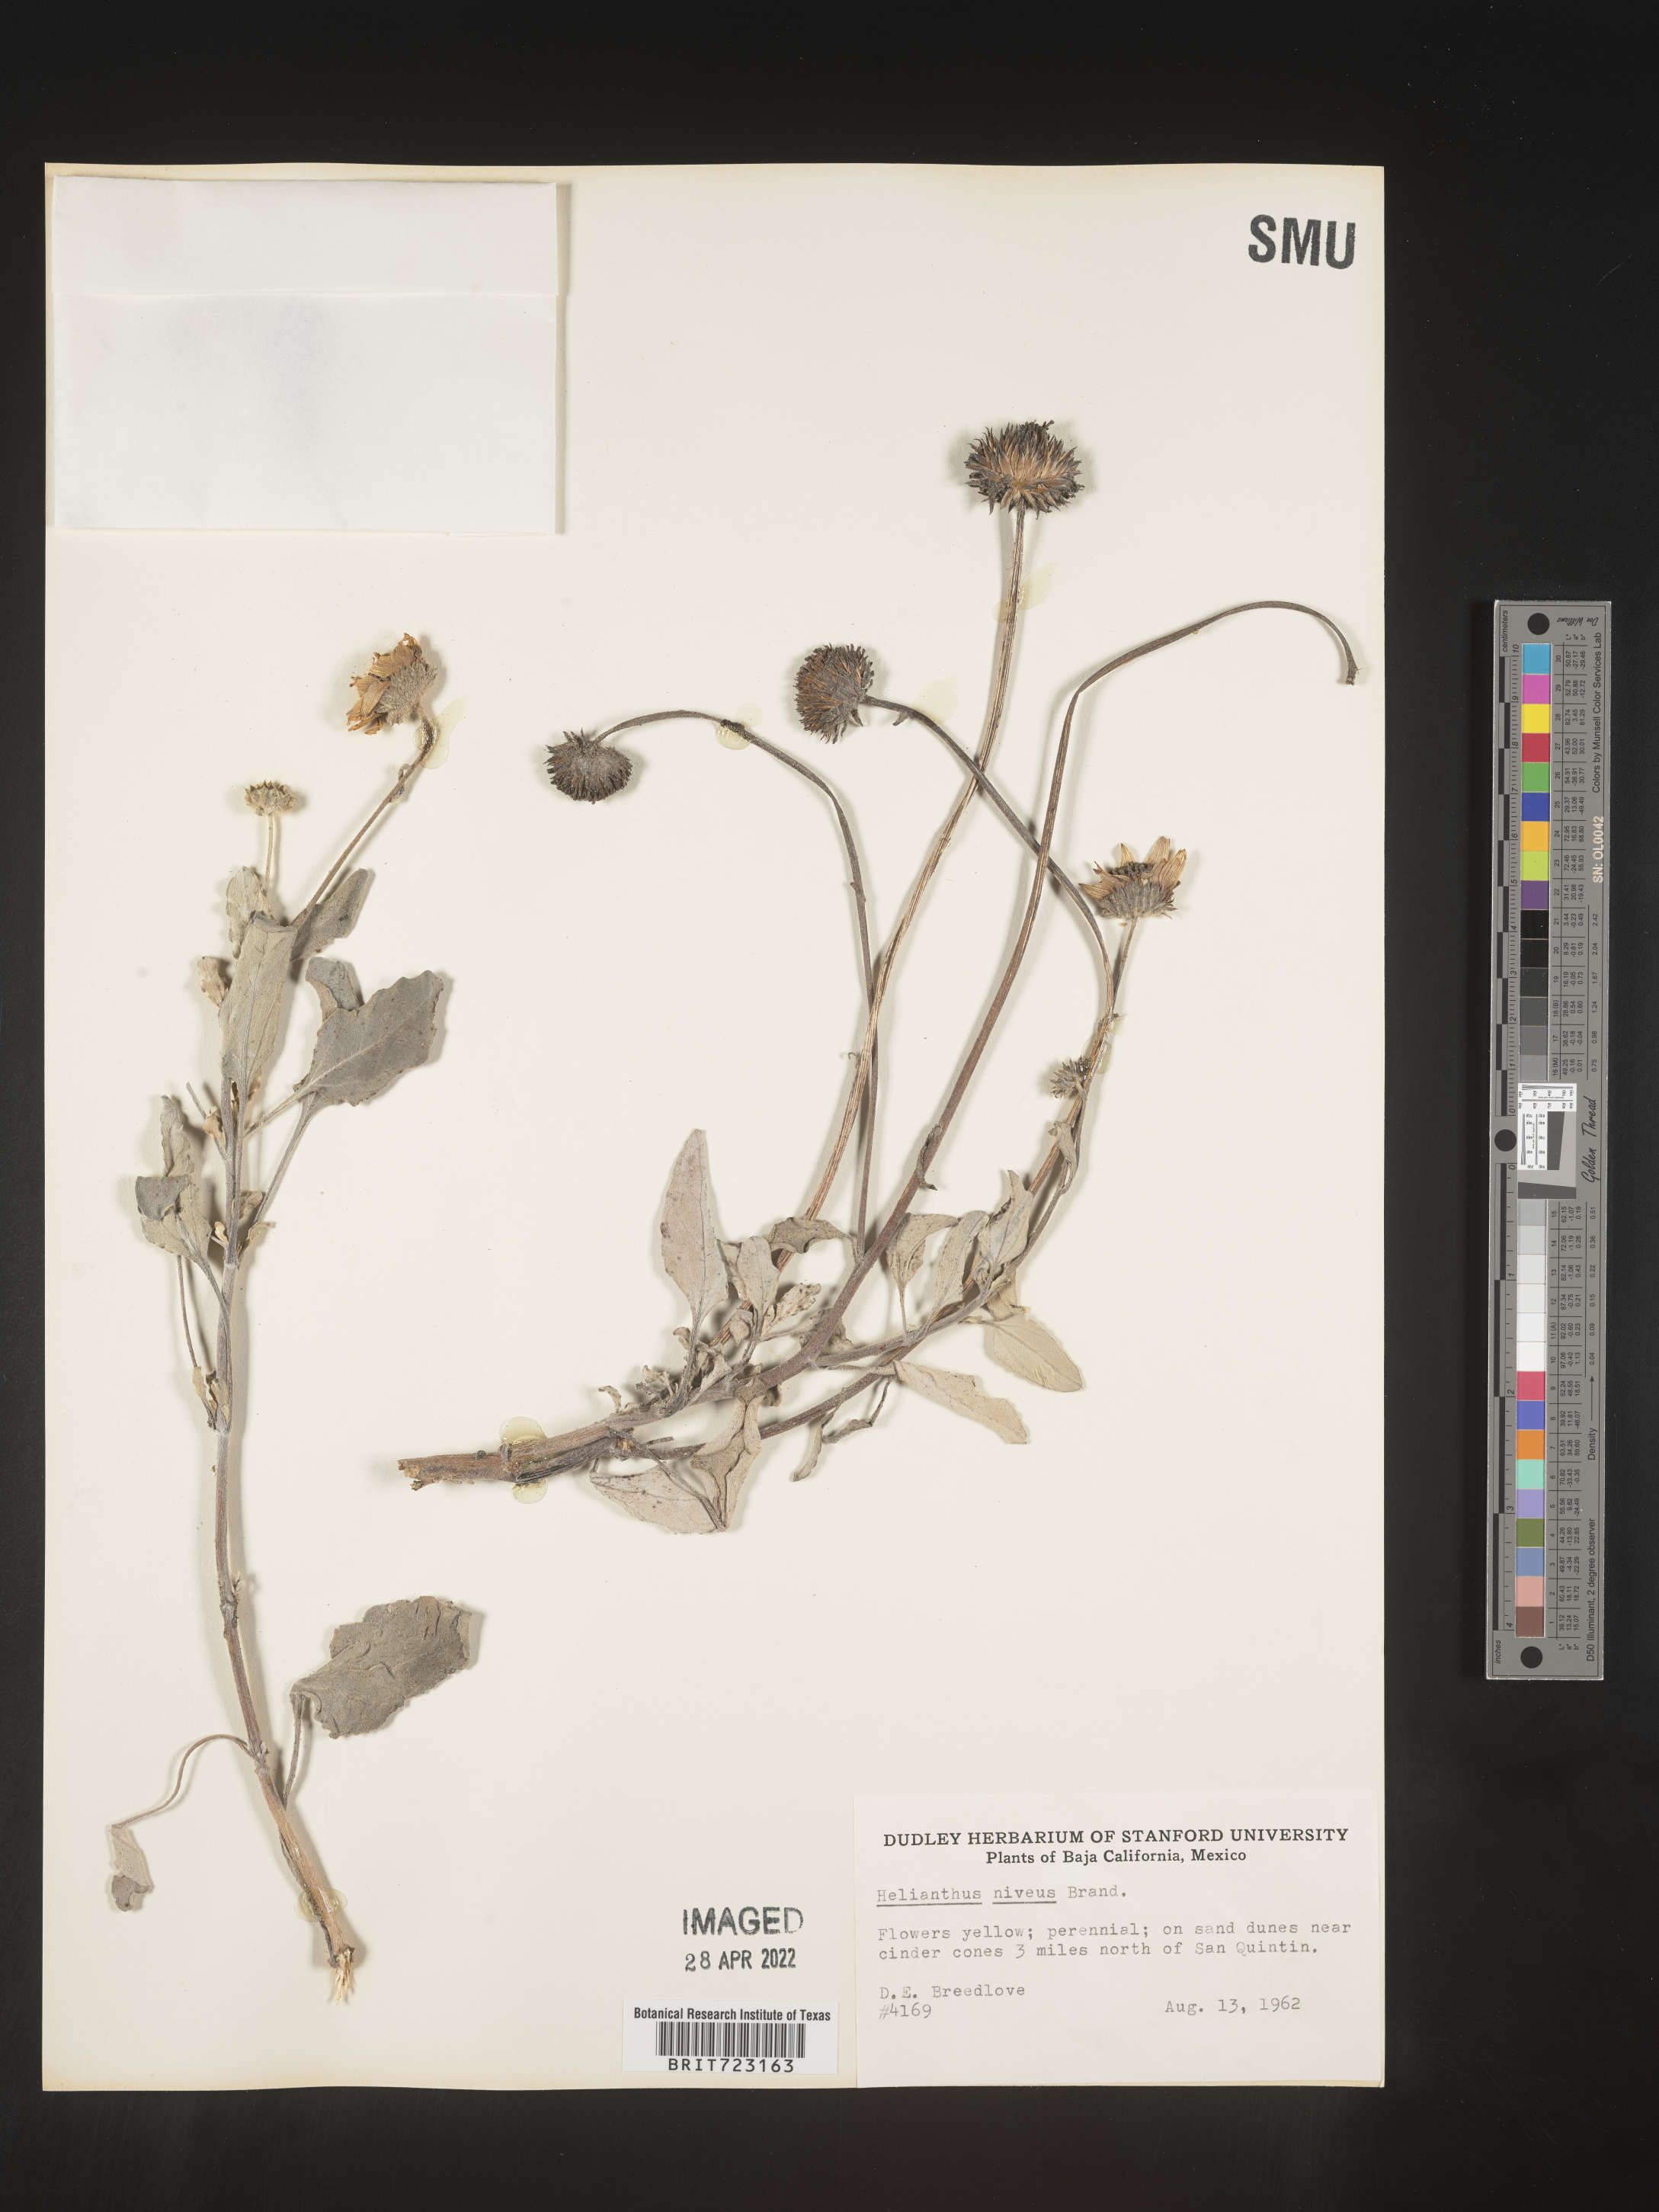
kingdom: Plantae
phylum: Tracheophyta
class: Magnoliopsida
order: Asterales
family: Asteraceae
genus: Helianthus
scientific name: Helianthus
